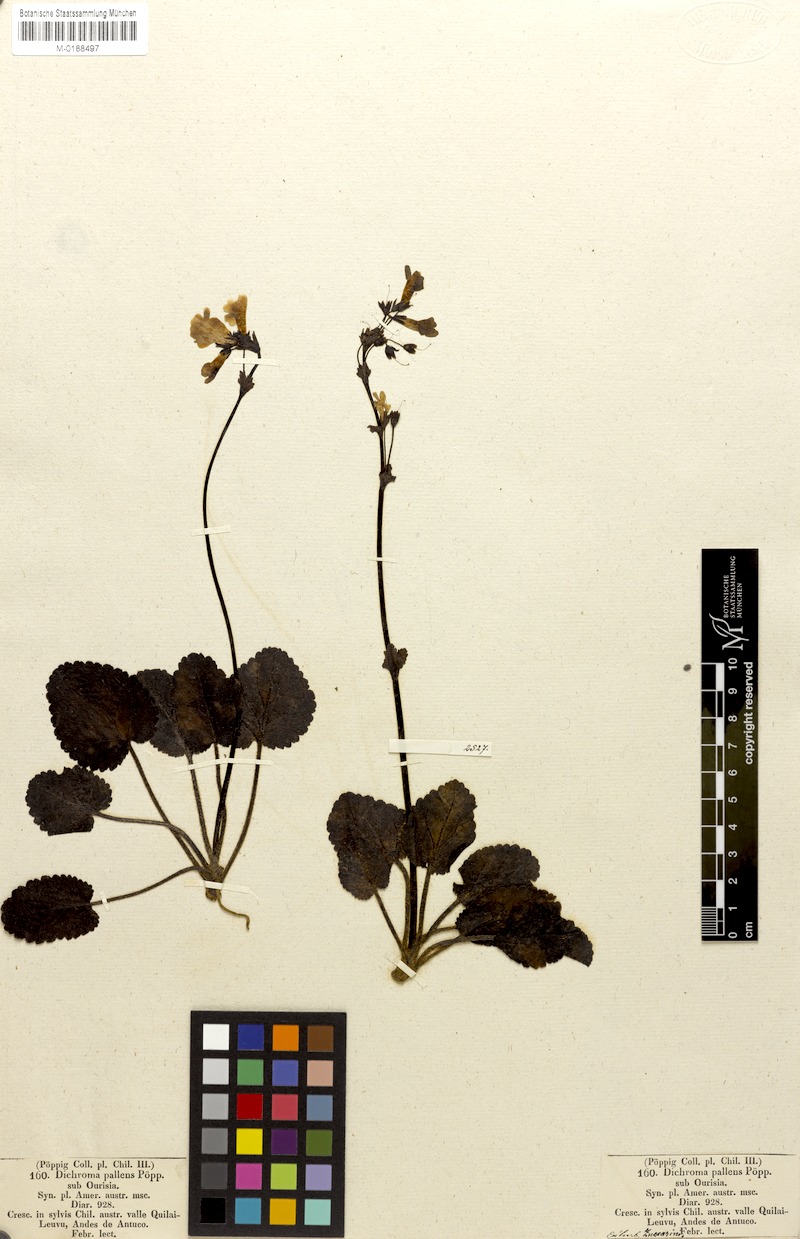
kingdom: Plantae
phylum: Tracheophyta
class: Magnoliopsida
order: Lamiales
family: Plantaginaceae
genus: Ourisia
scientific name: Ourisia alpina
